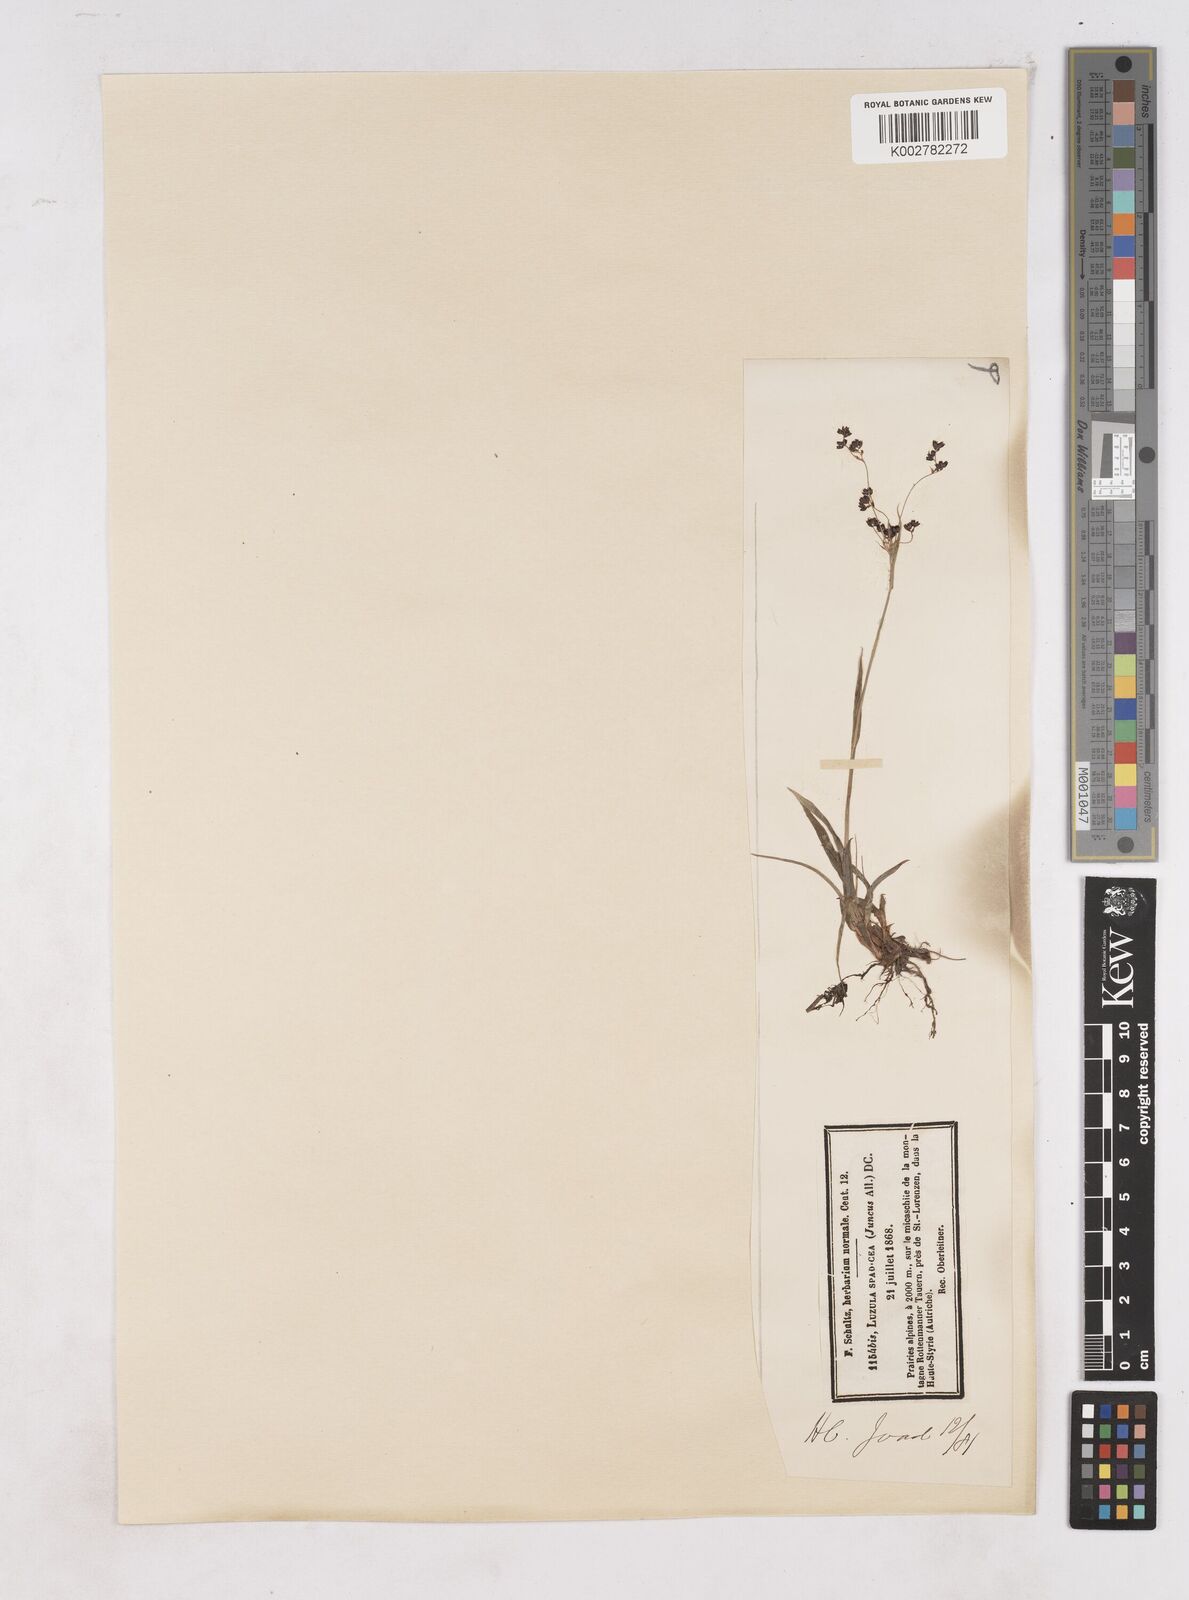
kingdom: Plantae
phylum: Tracheophyta
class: Liliopsida
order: Poales
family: Juncaceae
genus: Luzula
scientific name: Luzula alpinopilosa
